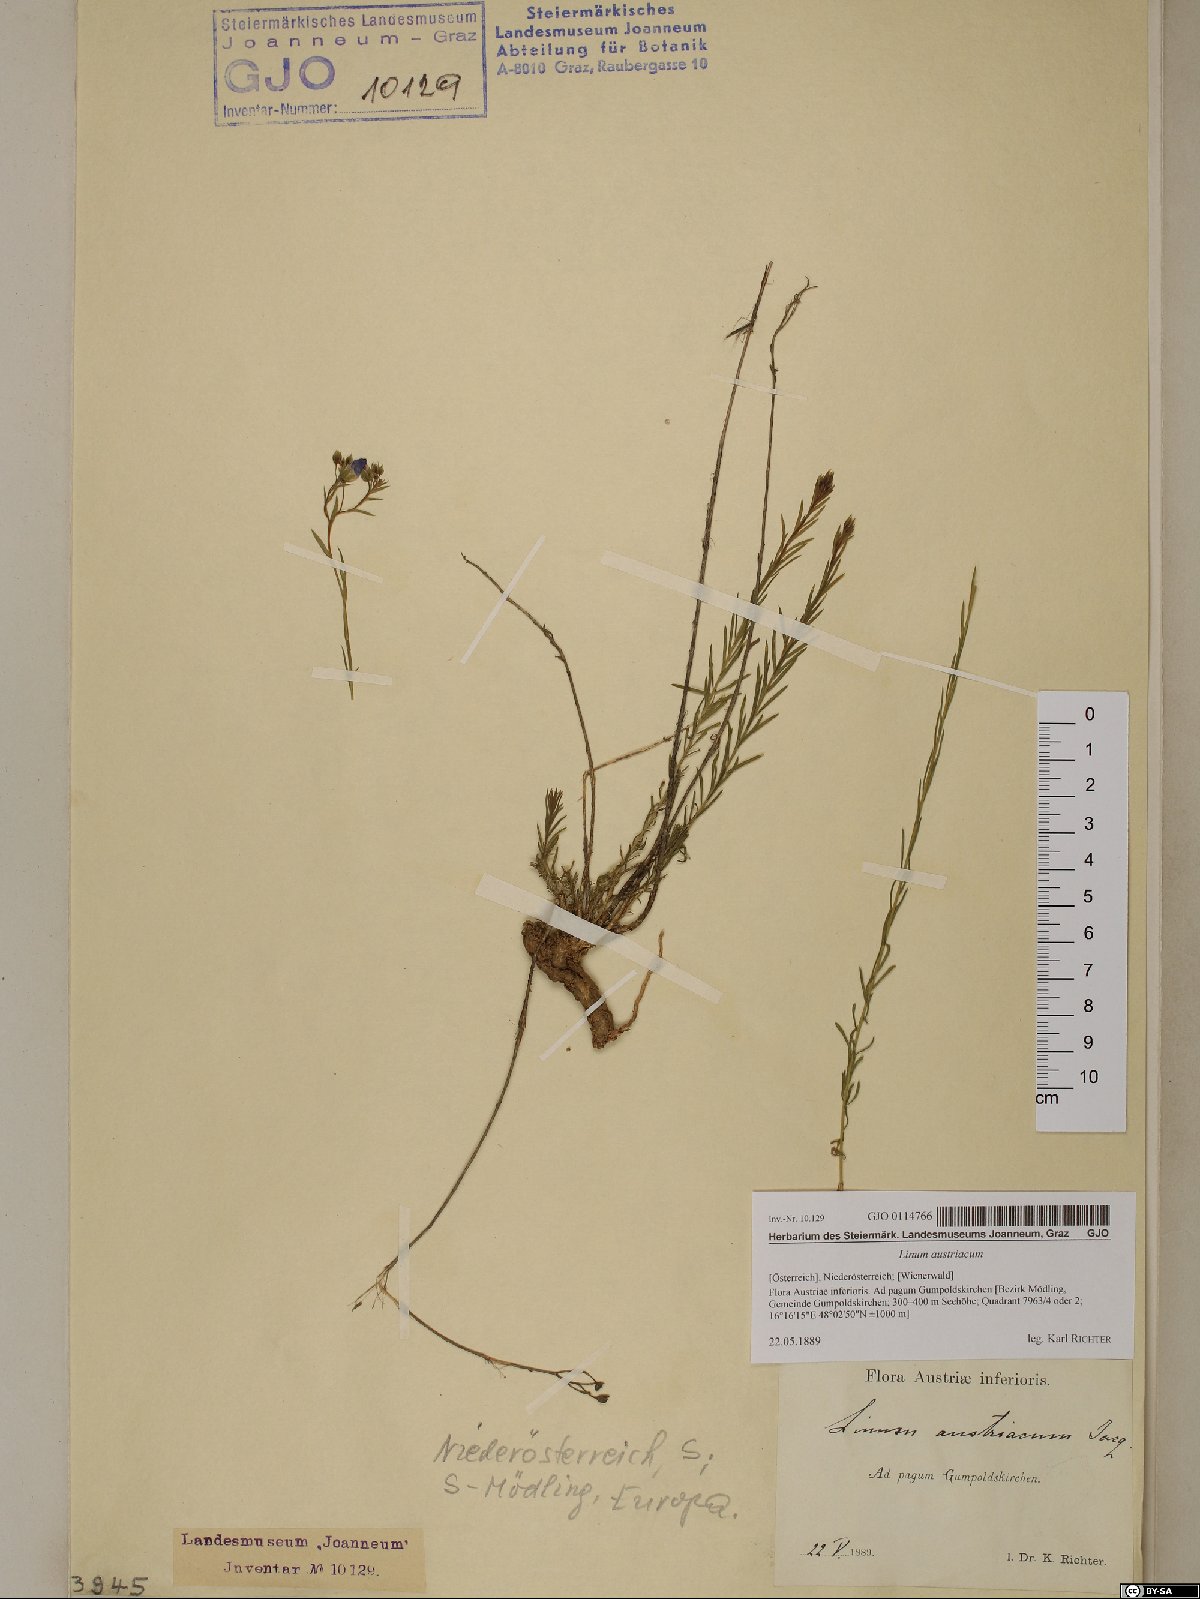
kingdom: Plantae
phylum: Tracheophyta
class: Magnoliopsida
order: Malpighiales
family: Linaceae
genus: Linum
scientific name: Linum austriacum
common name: Austrian flax
